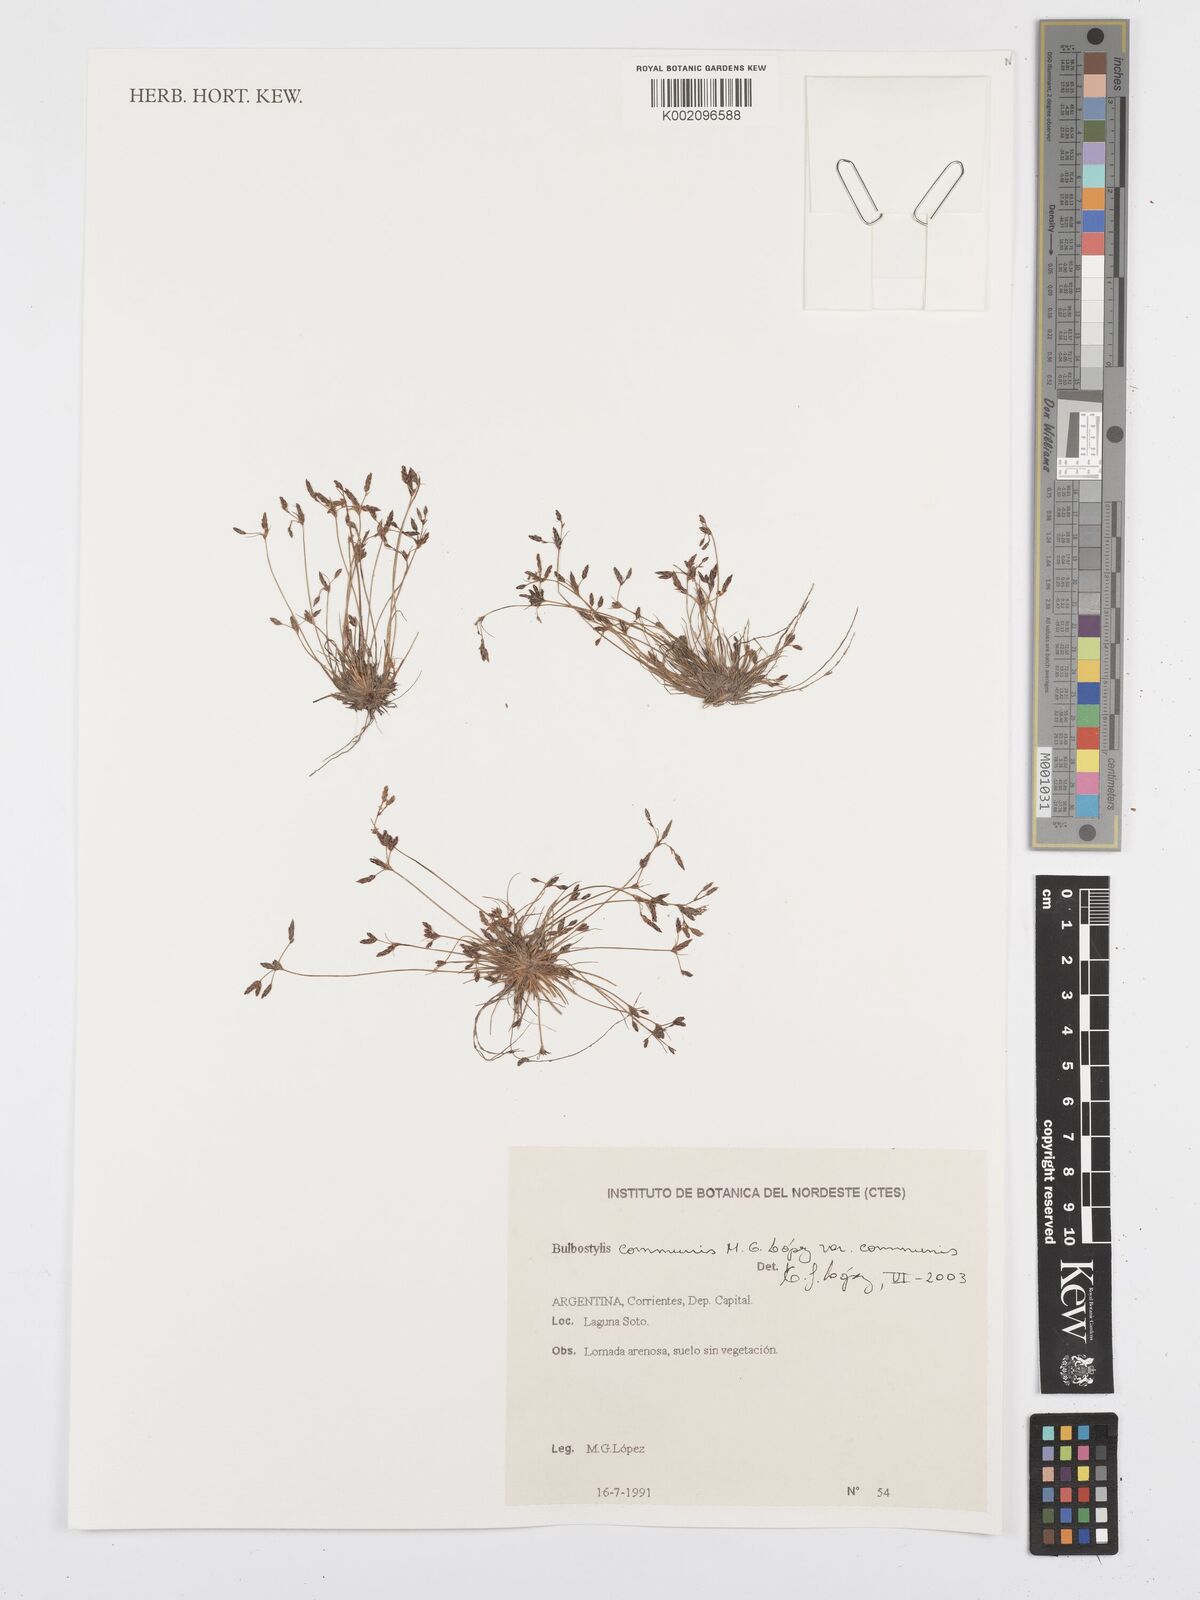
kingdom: Plantae
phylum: Tracheophyta
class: Liliopsida
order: Poales
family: Cyperaceae
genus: Bulbostylis
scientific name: Bulbostylis communis
